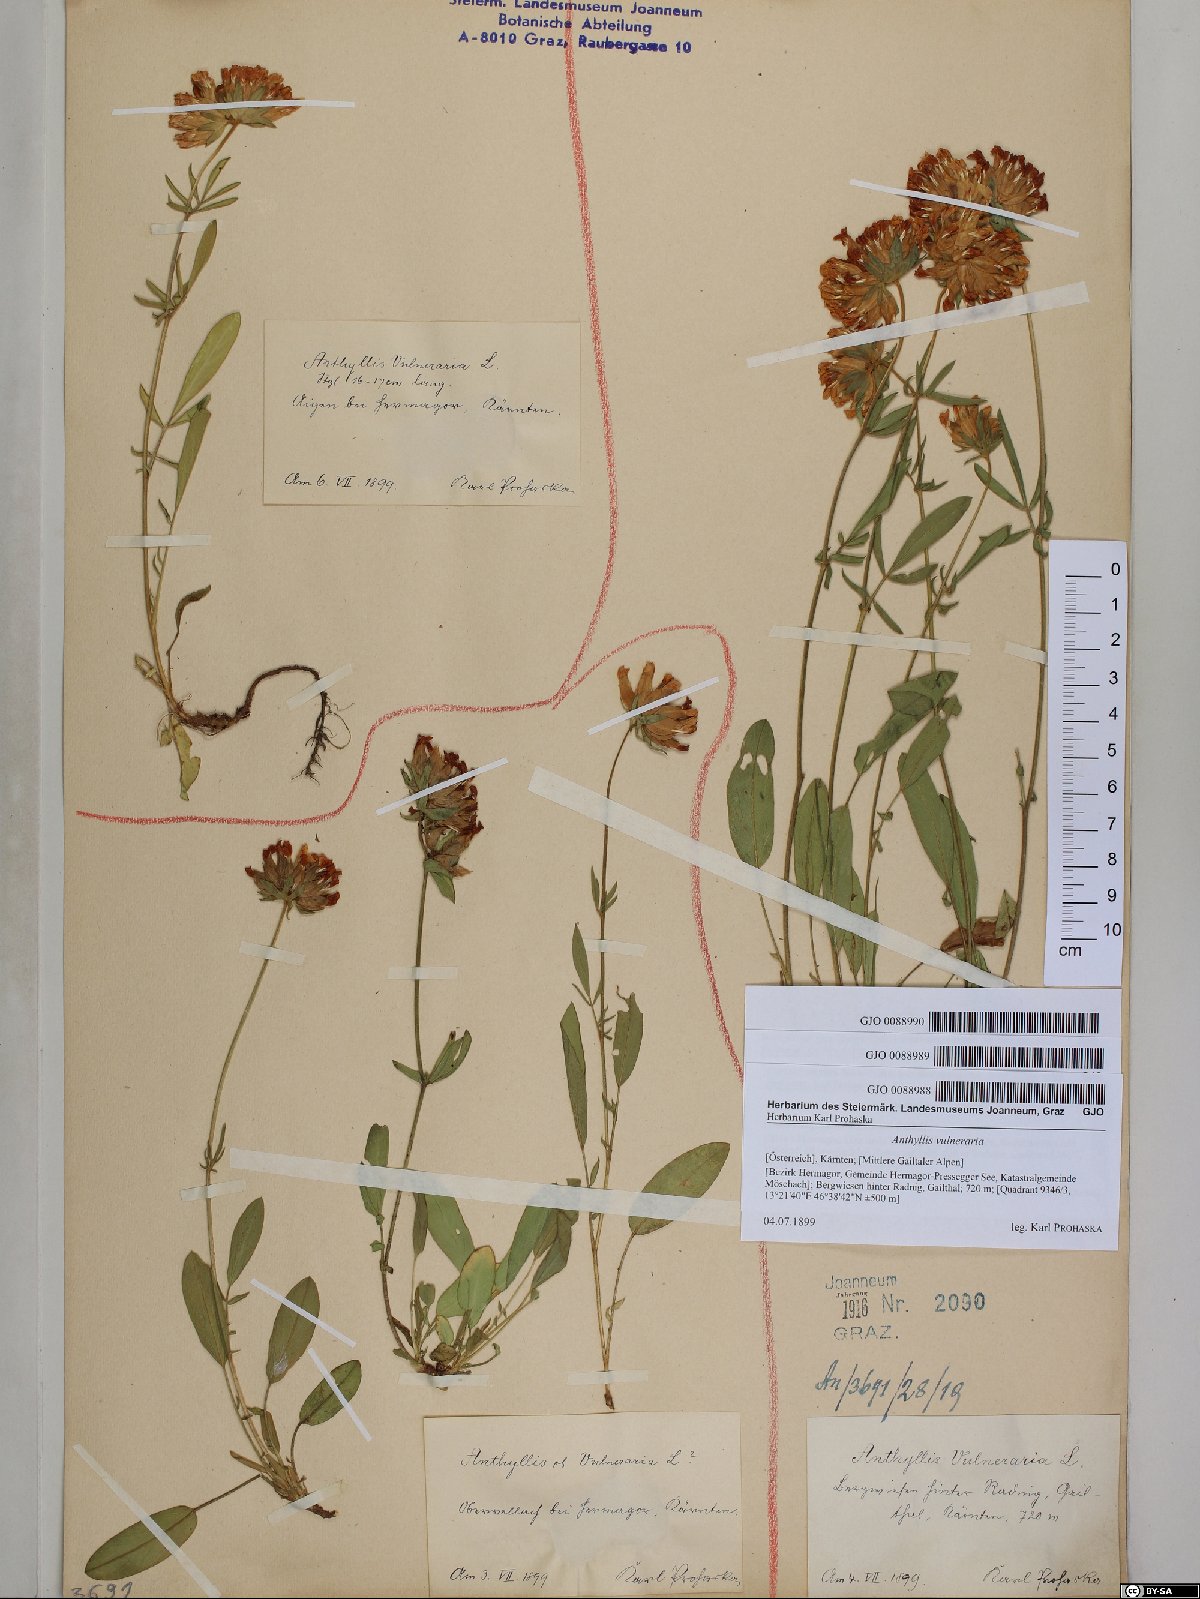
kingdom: Plantae
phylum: Tracheophyta
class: Magnoliopsida
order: Fabales
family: Fabaceae
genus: Anthyllis
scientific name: Anthyllis vulneraria
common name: Kidney vetch
